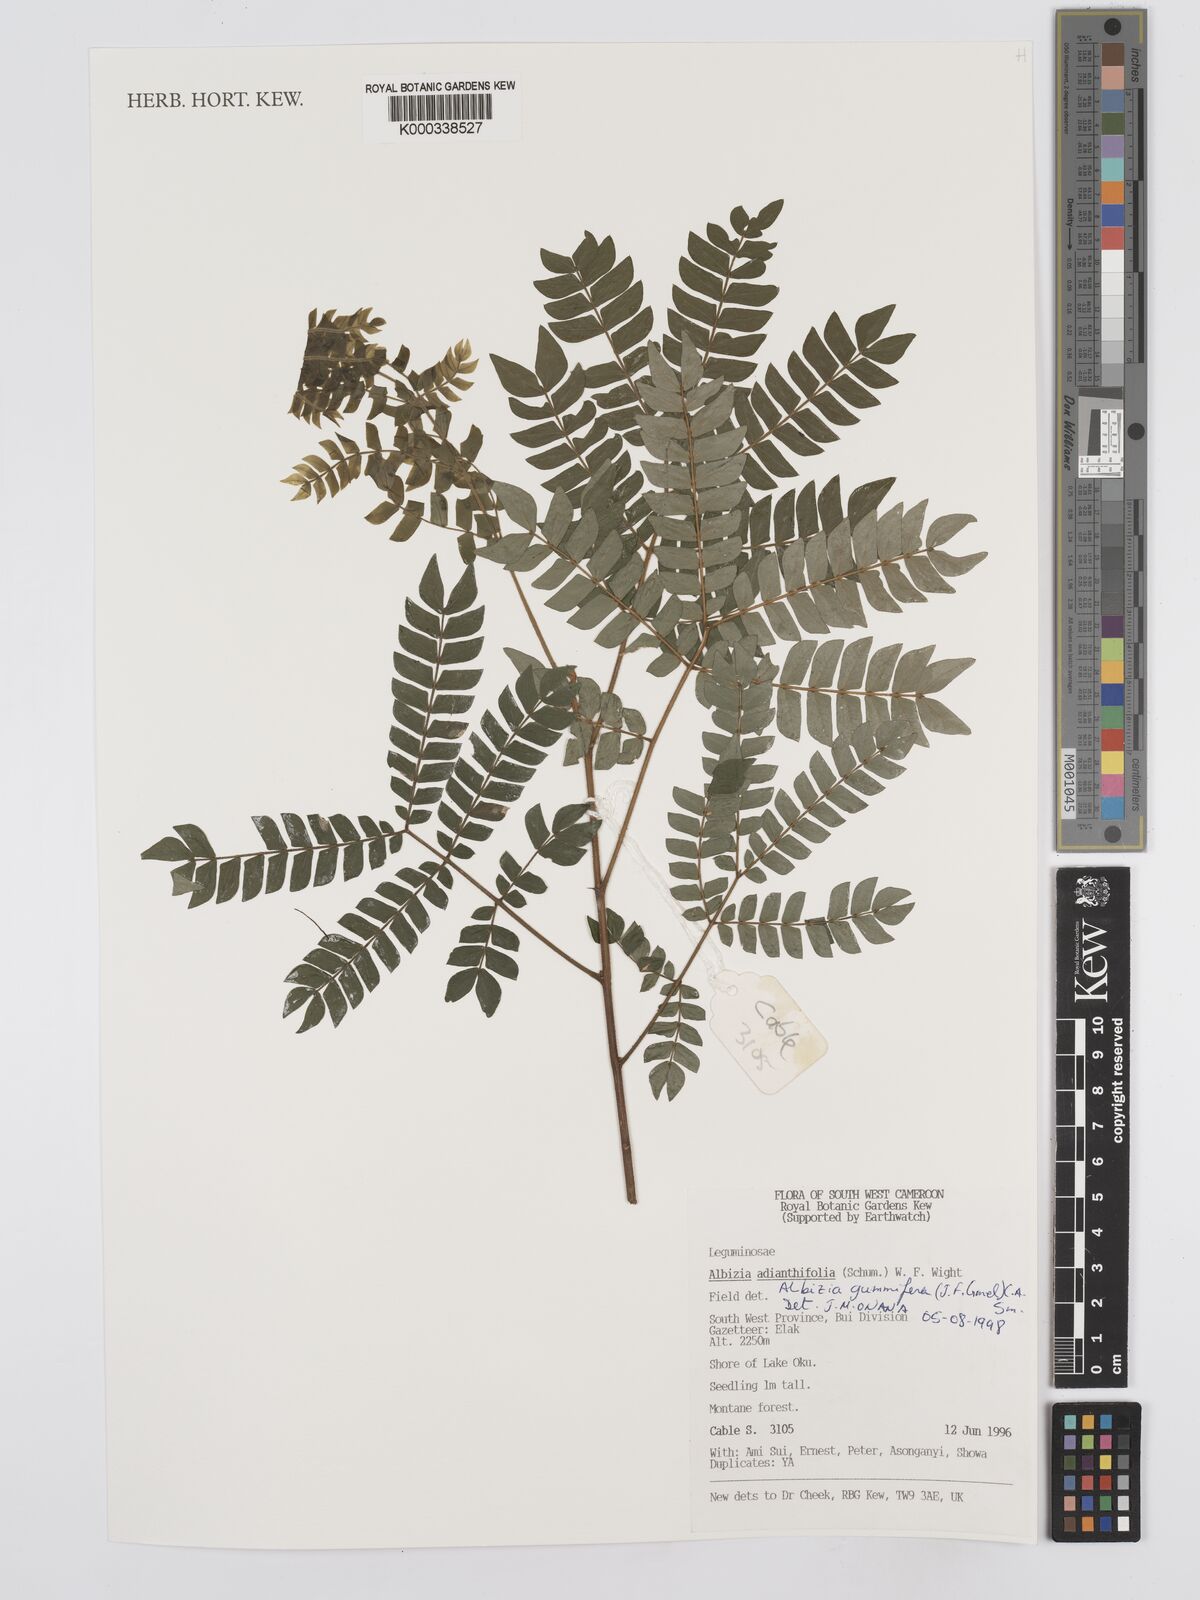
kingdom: Plantae
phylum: Tracheophyta
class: Magnoliopsida
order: Fabales
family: Fabaceae
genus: Albizia
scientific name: Albizia gummifera
